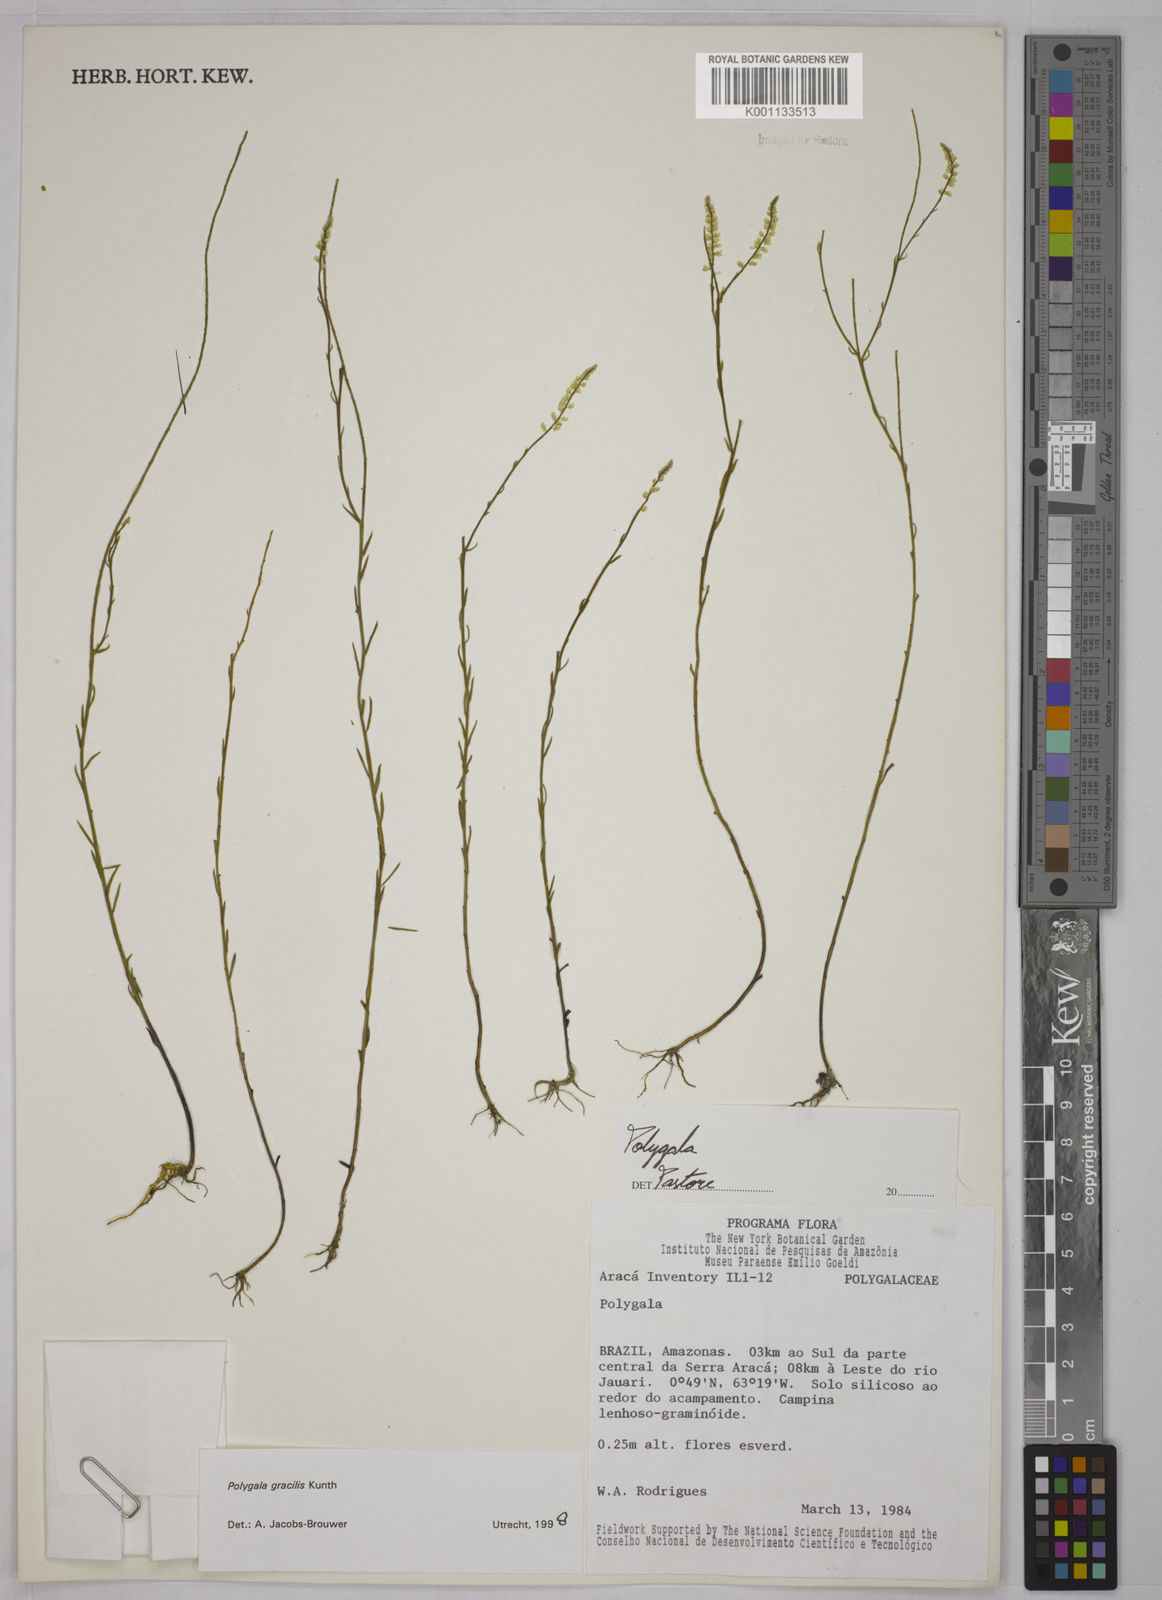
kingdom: Plantae
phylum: Tracheophyta
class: Magnoliopsida
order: Fabales
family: Polygalaceae
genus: Polygala
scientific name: Polygala gracilis
